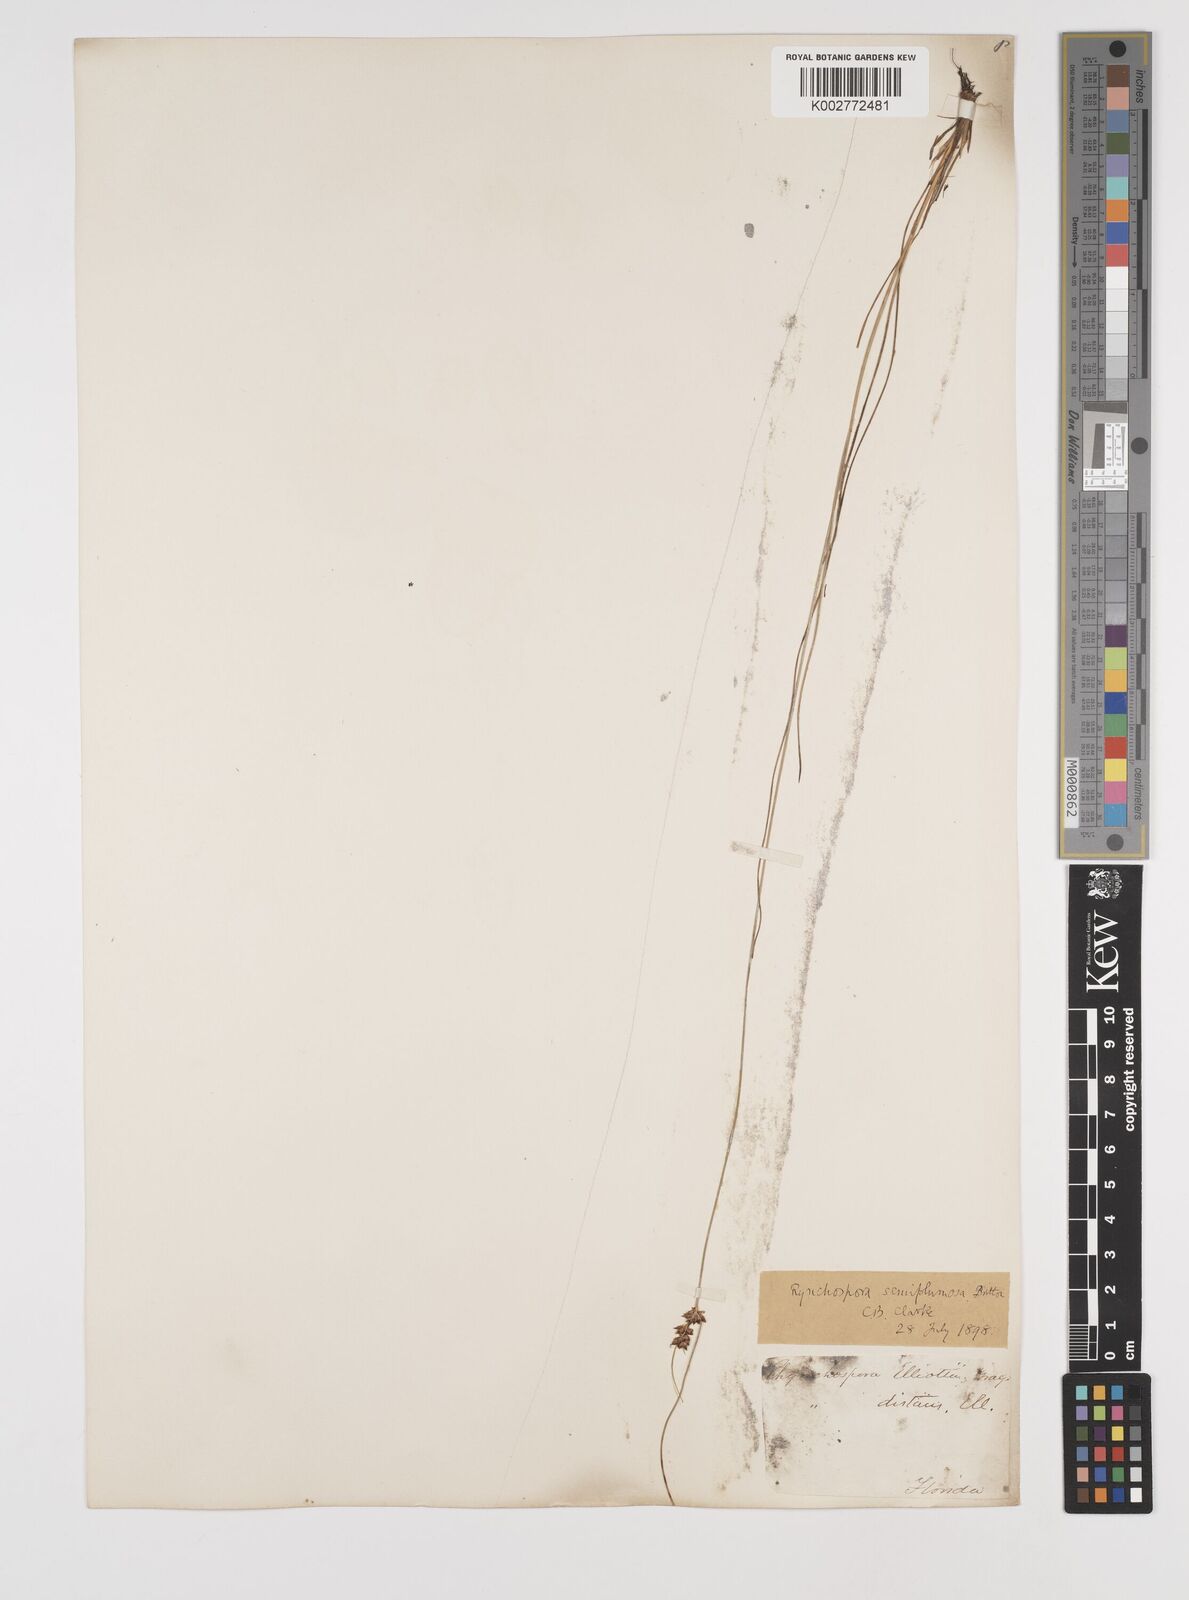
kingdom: Plantae
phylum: Tracheophyta
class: Liliopsida
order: Poales
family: Cyperaceae
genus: Rhynchospora
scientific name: Rhynchospora plumosa
